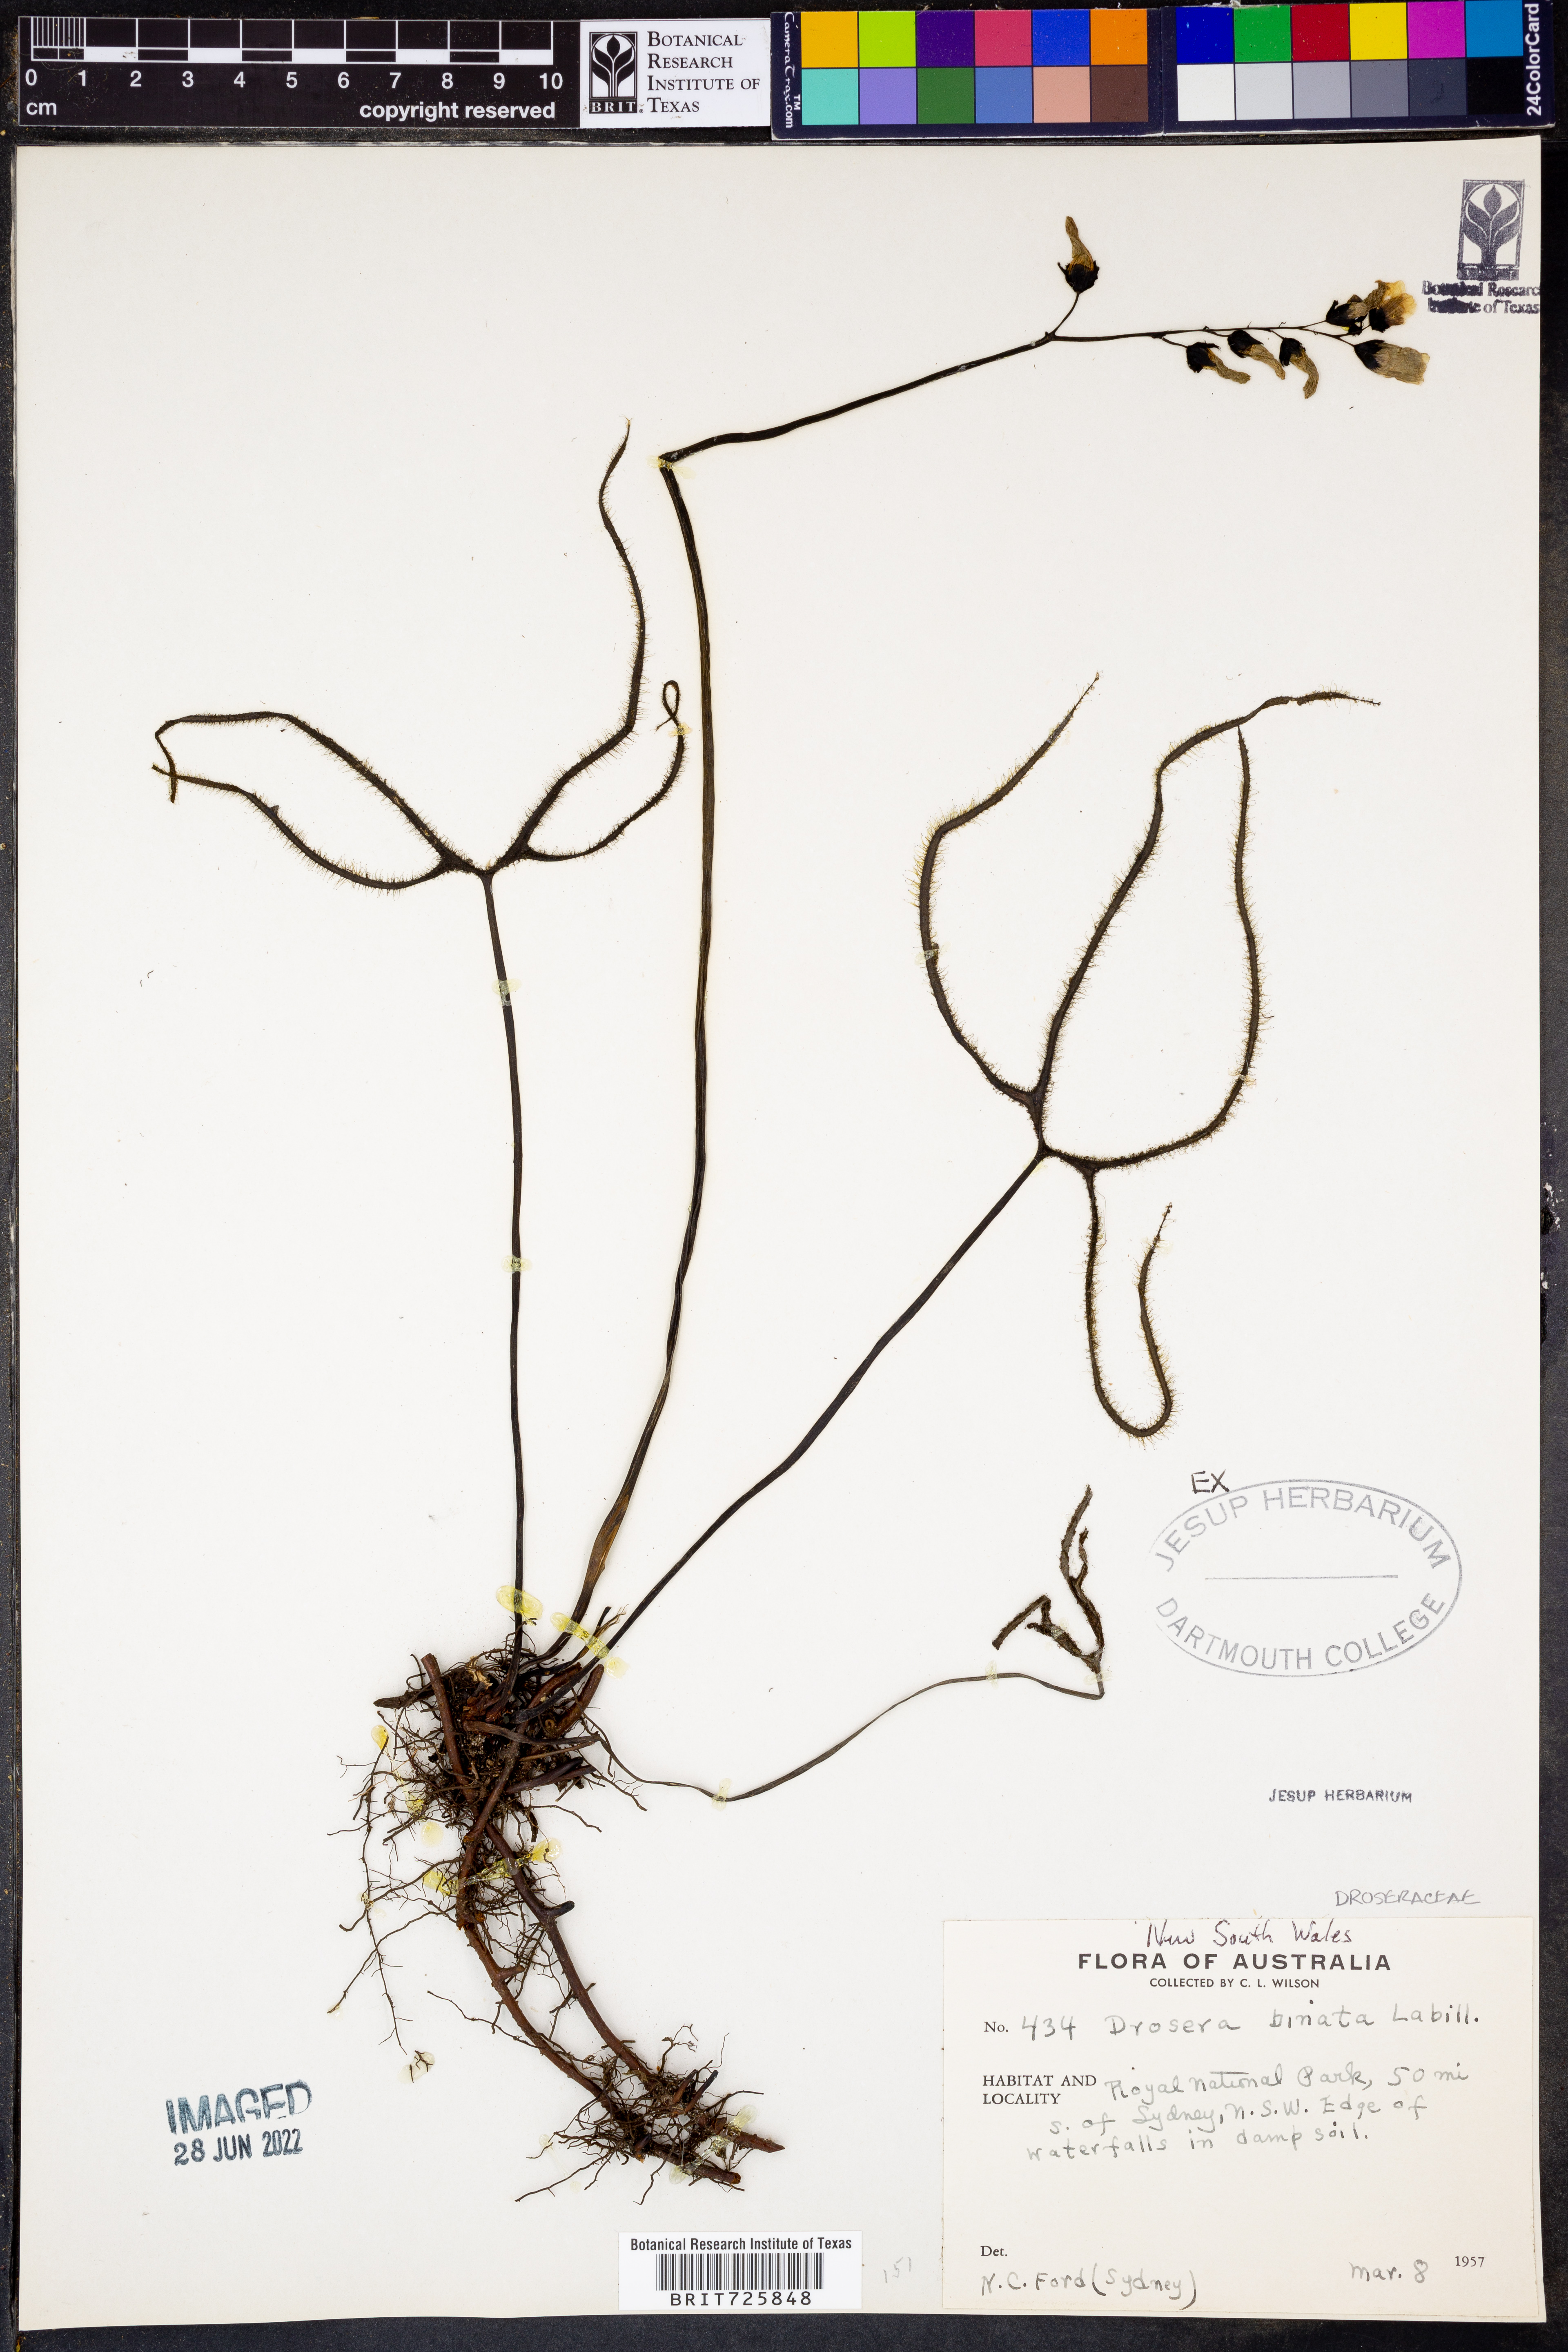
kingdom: Plantae
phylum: Tracheophyta
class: Magnoliopsida
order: Caryophyllales
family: Droseraceae
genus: Drosera
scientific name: Drosera binata
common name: Forked sundew
